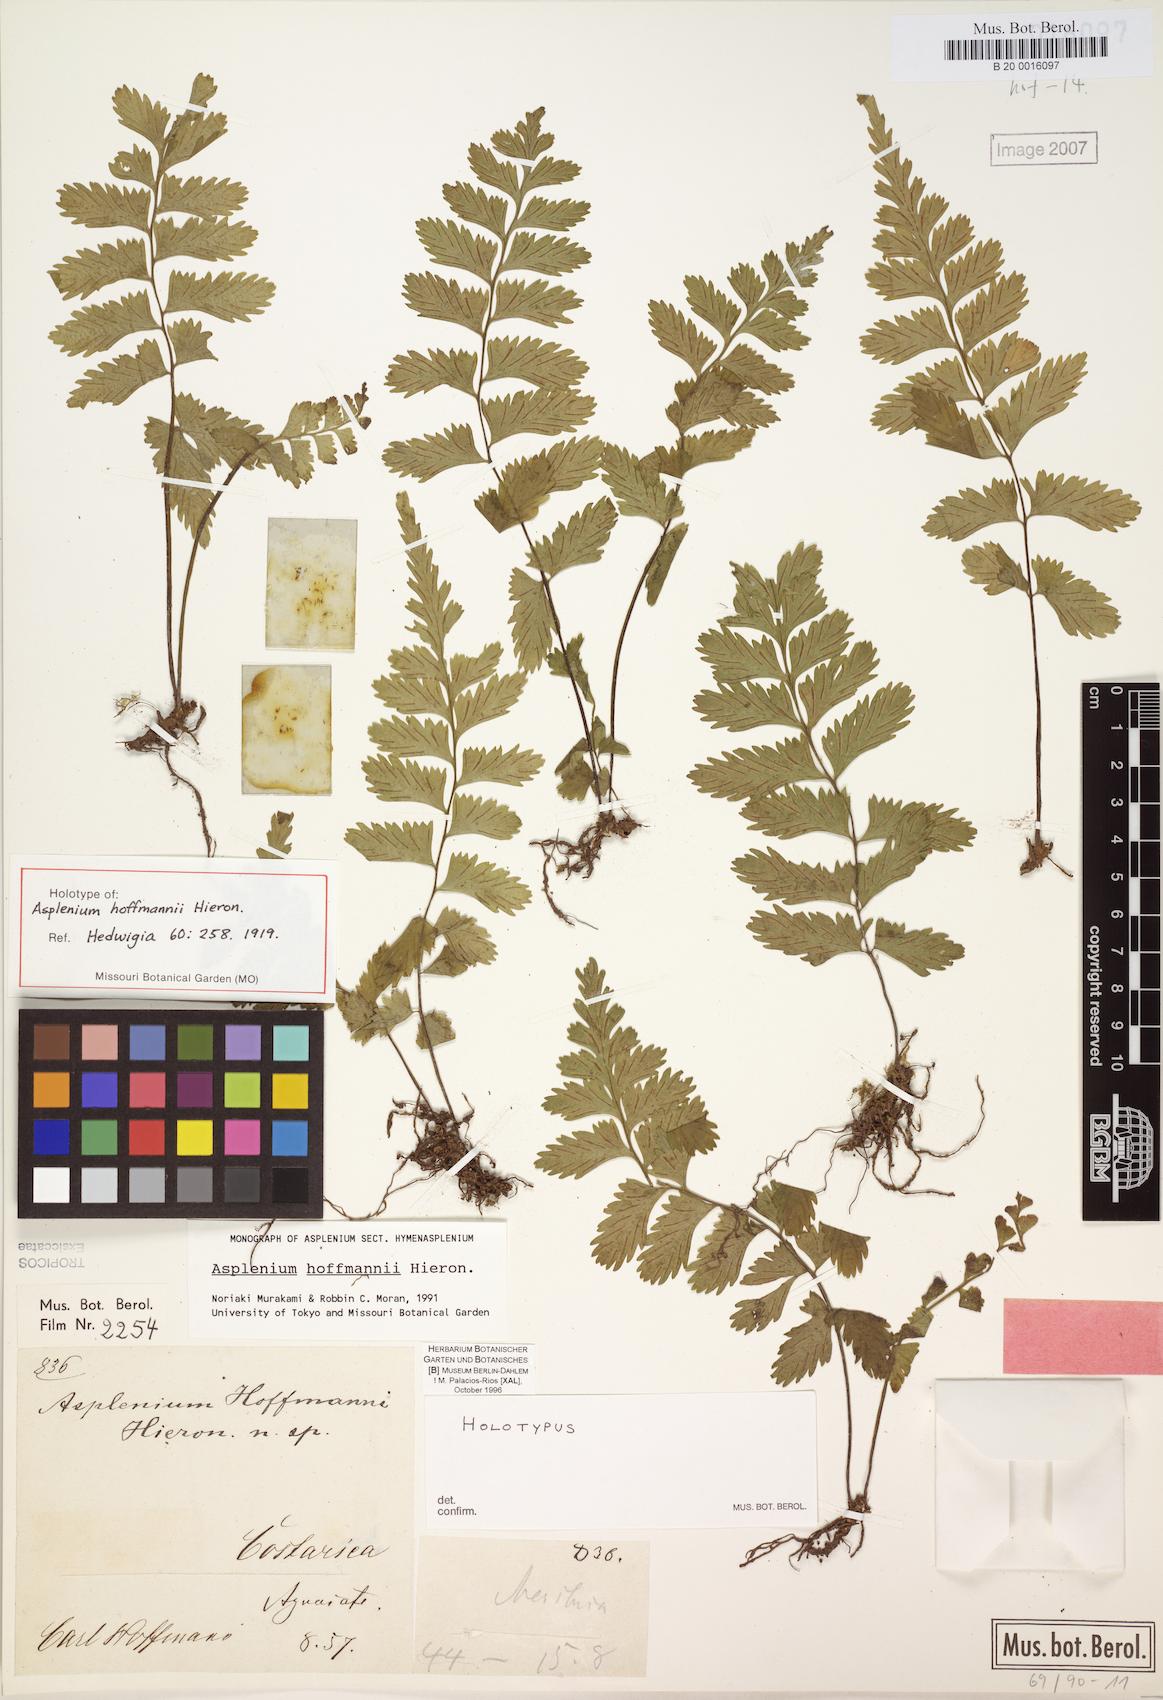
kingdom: Plantae
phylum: Tracheophyta
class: Polypodiopsida
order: Polypodiales
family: Aspleniaceae
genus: Hymenasplenium
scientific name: Hymenasplenium hoffmannii
